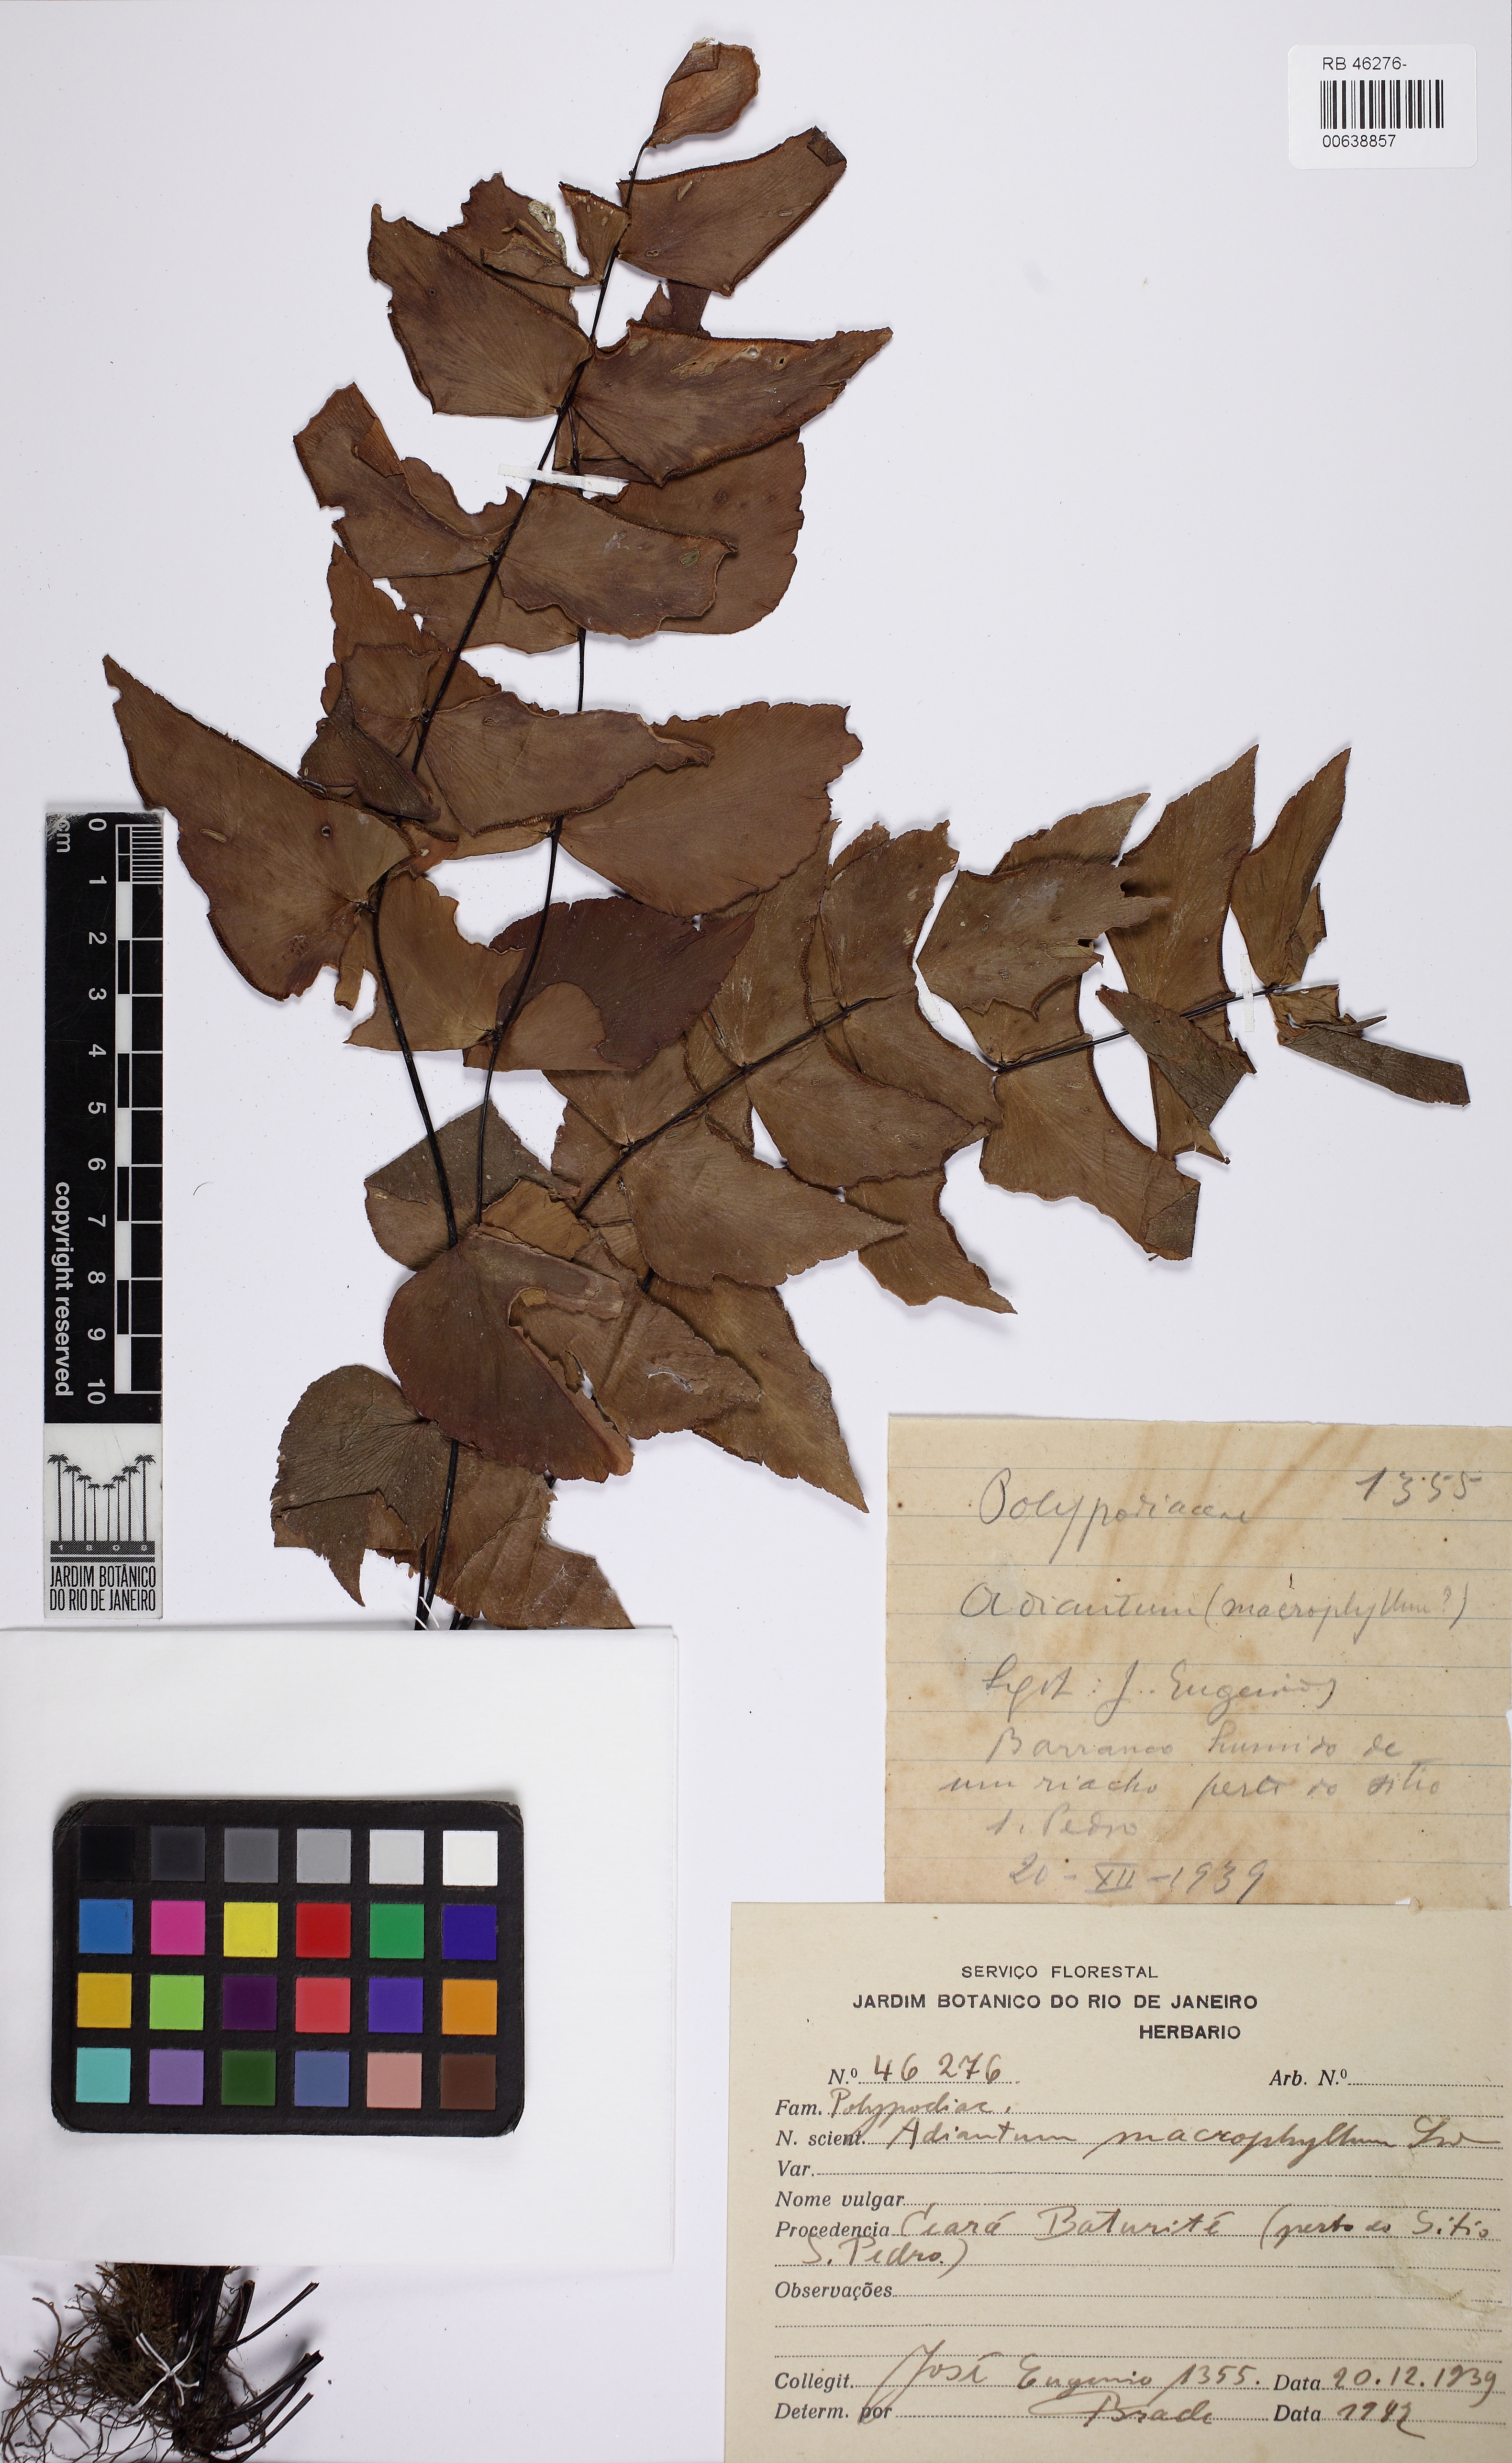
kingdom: Plantae
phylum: Tracheophyta
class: Polypodiopsida
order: Polypodiales
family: Pteridaceae
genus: Adiantum
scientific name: Adiantum macrophyllum
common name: Largeleaf maidenhair
